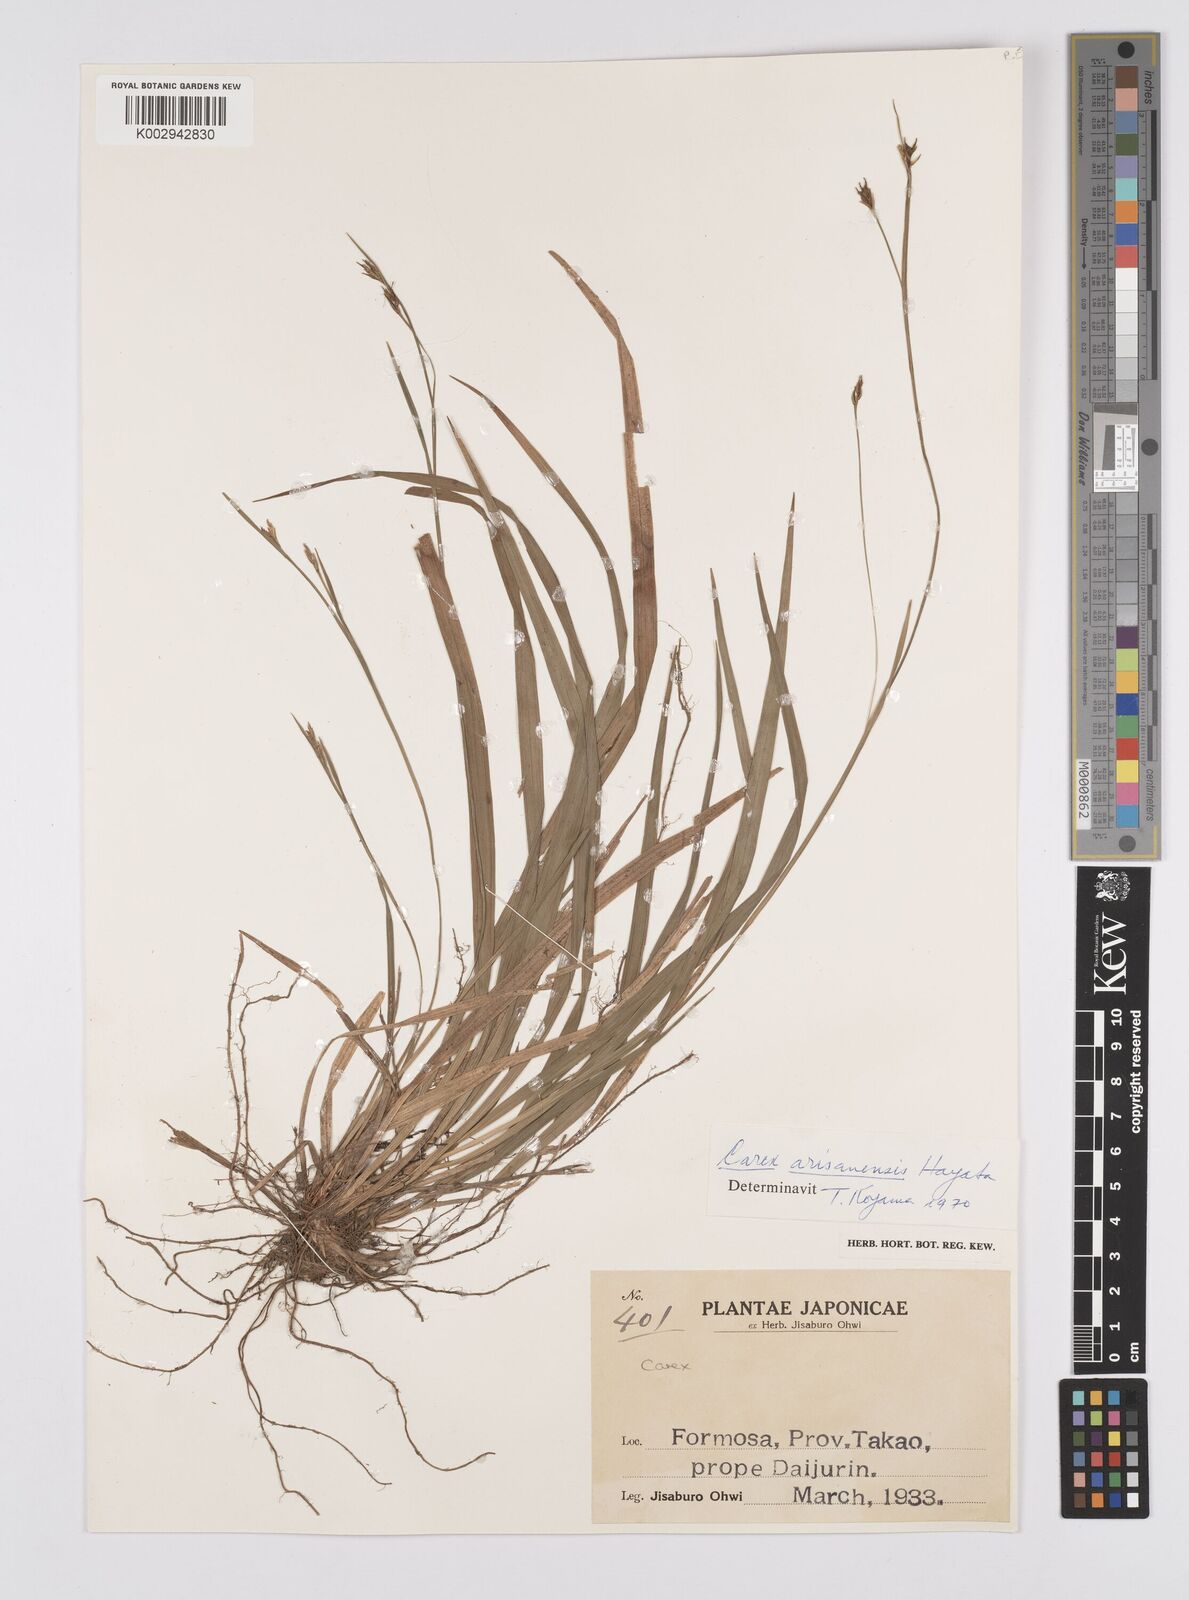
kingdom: Plantae
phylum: Tracheophyta
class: Liliopsida
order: Poales
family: Cyperaceae
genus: Carex
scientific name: Carex arisanensis
